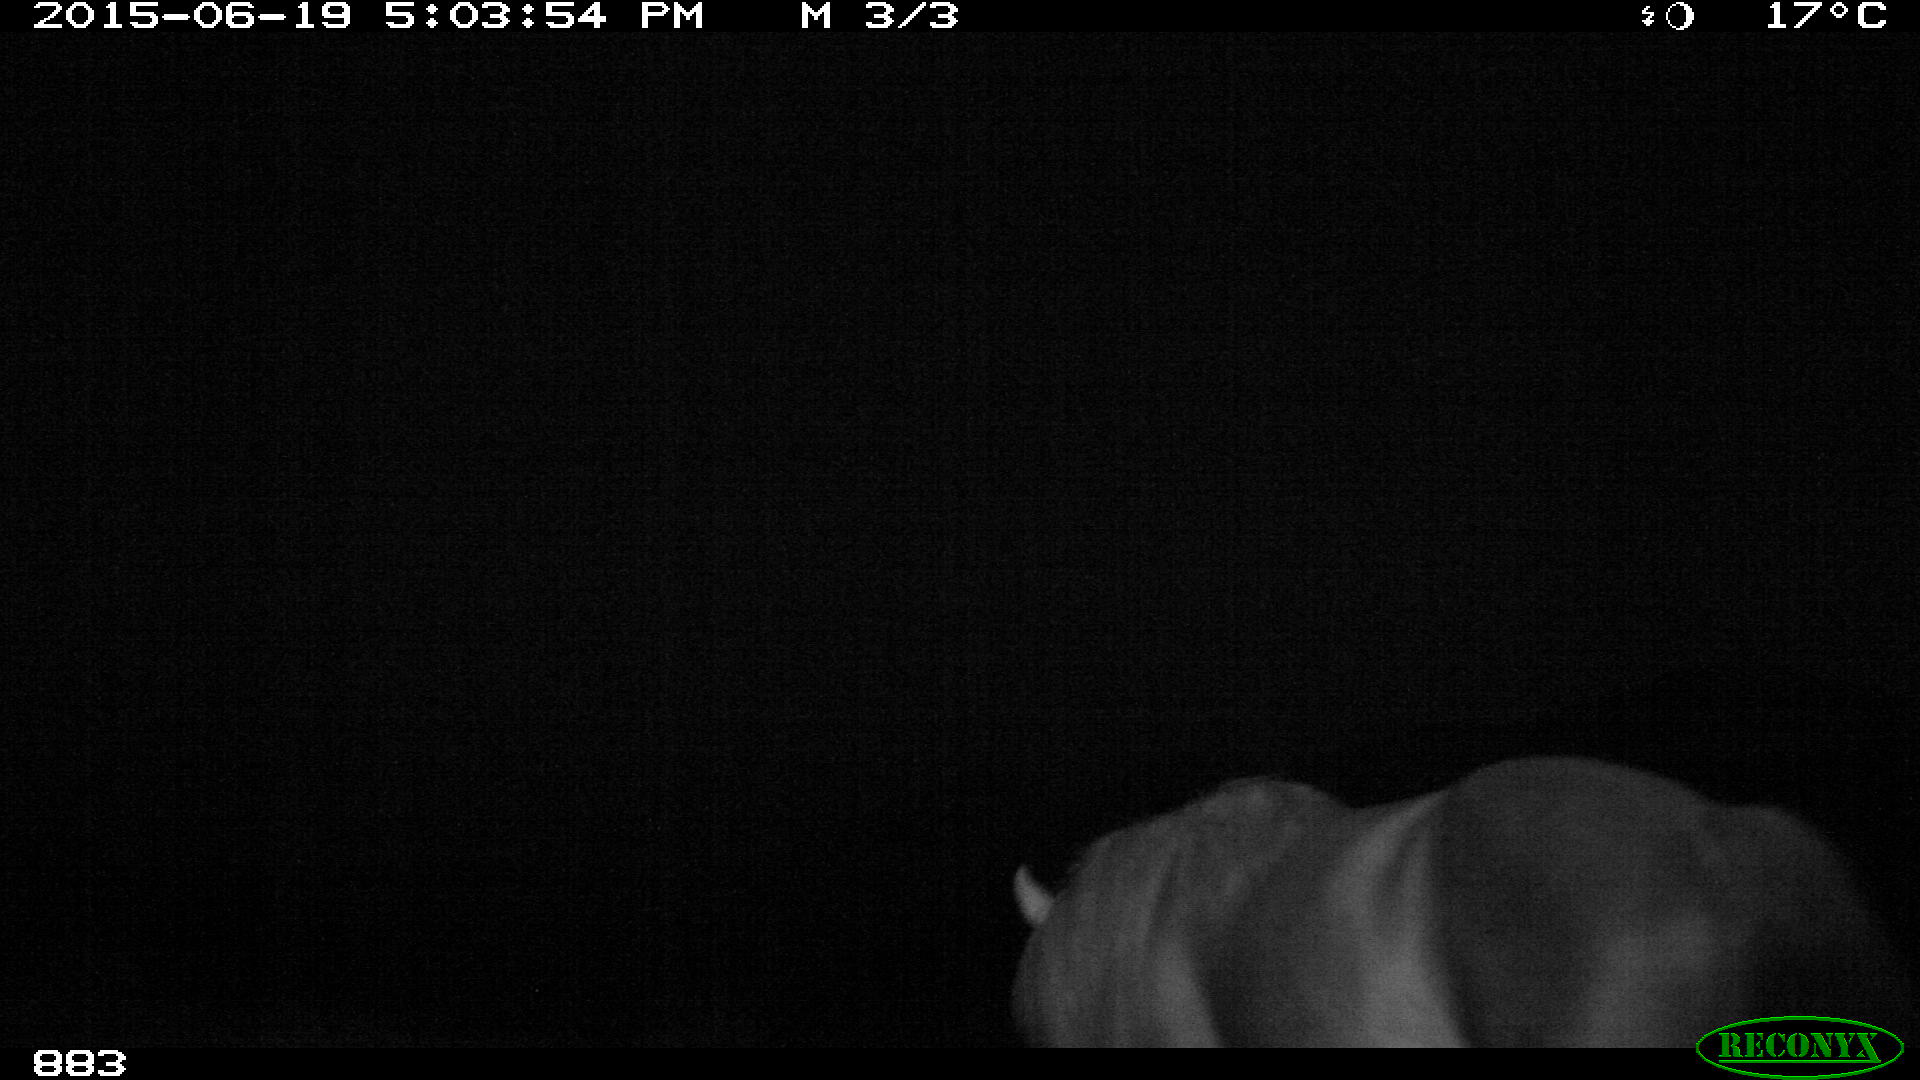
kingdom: Animalia
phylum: Chordata
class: Mammalia
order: Perissodactyla
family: Equidae
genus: Equus
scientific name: Equus caballus
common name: Horse
